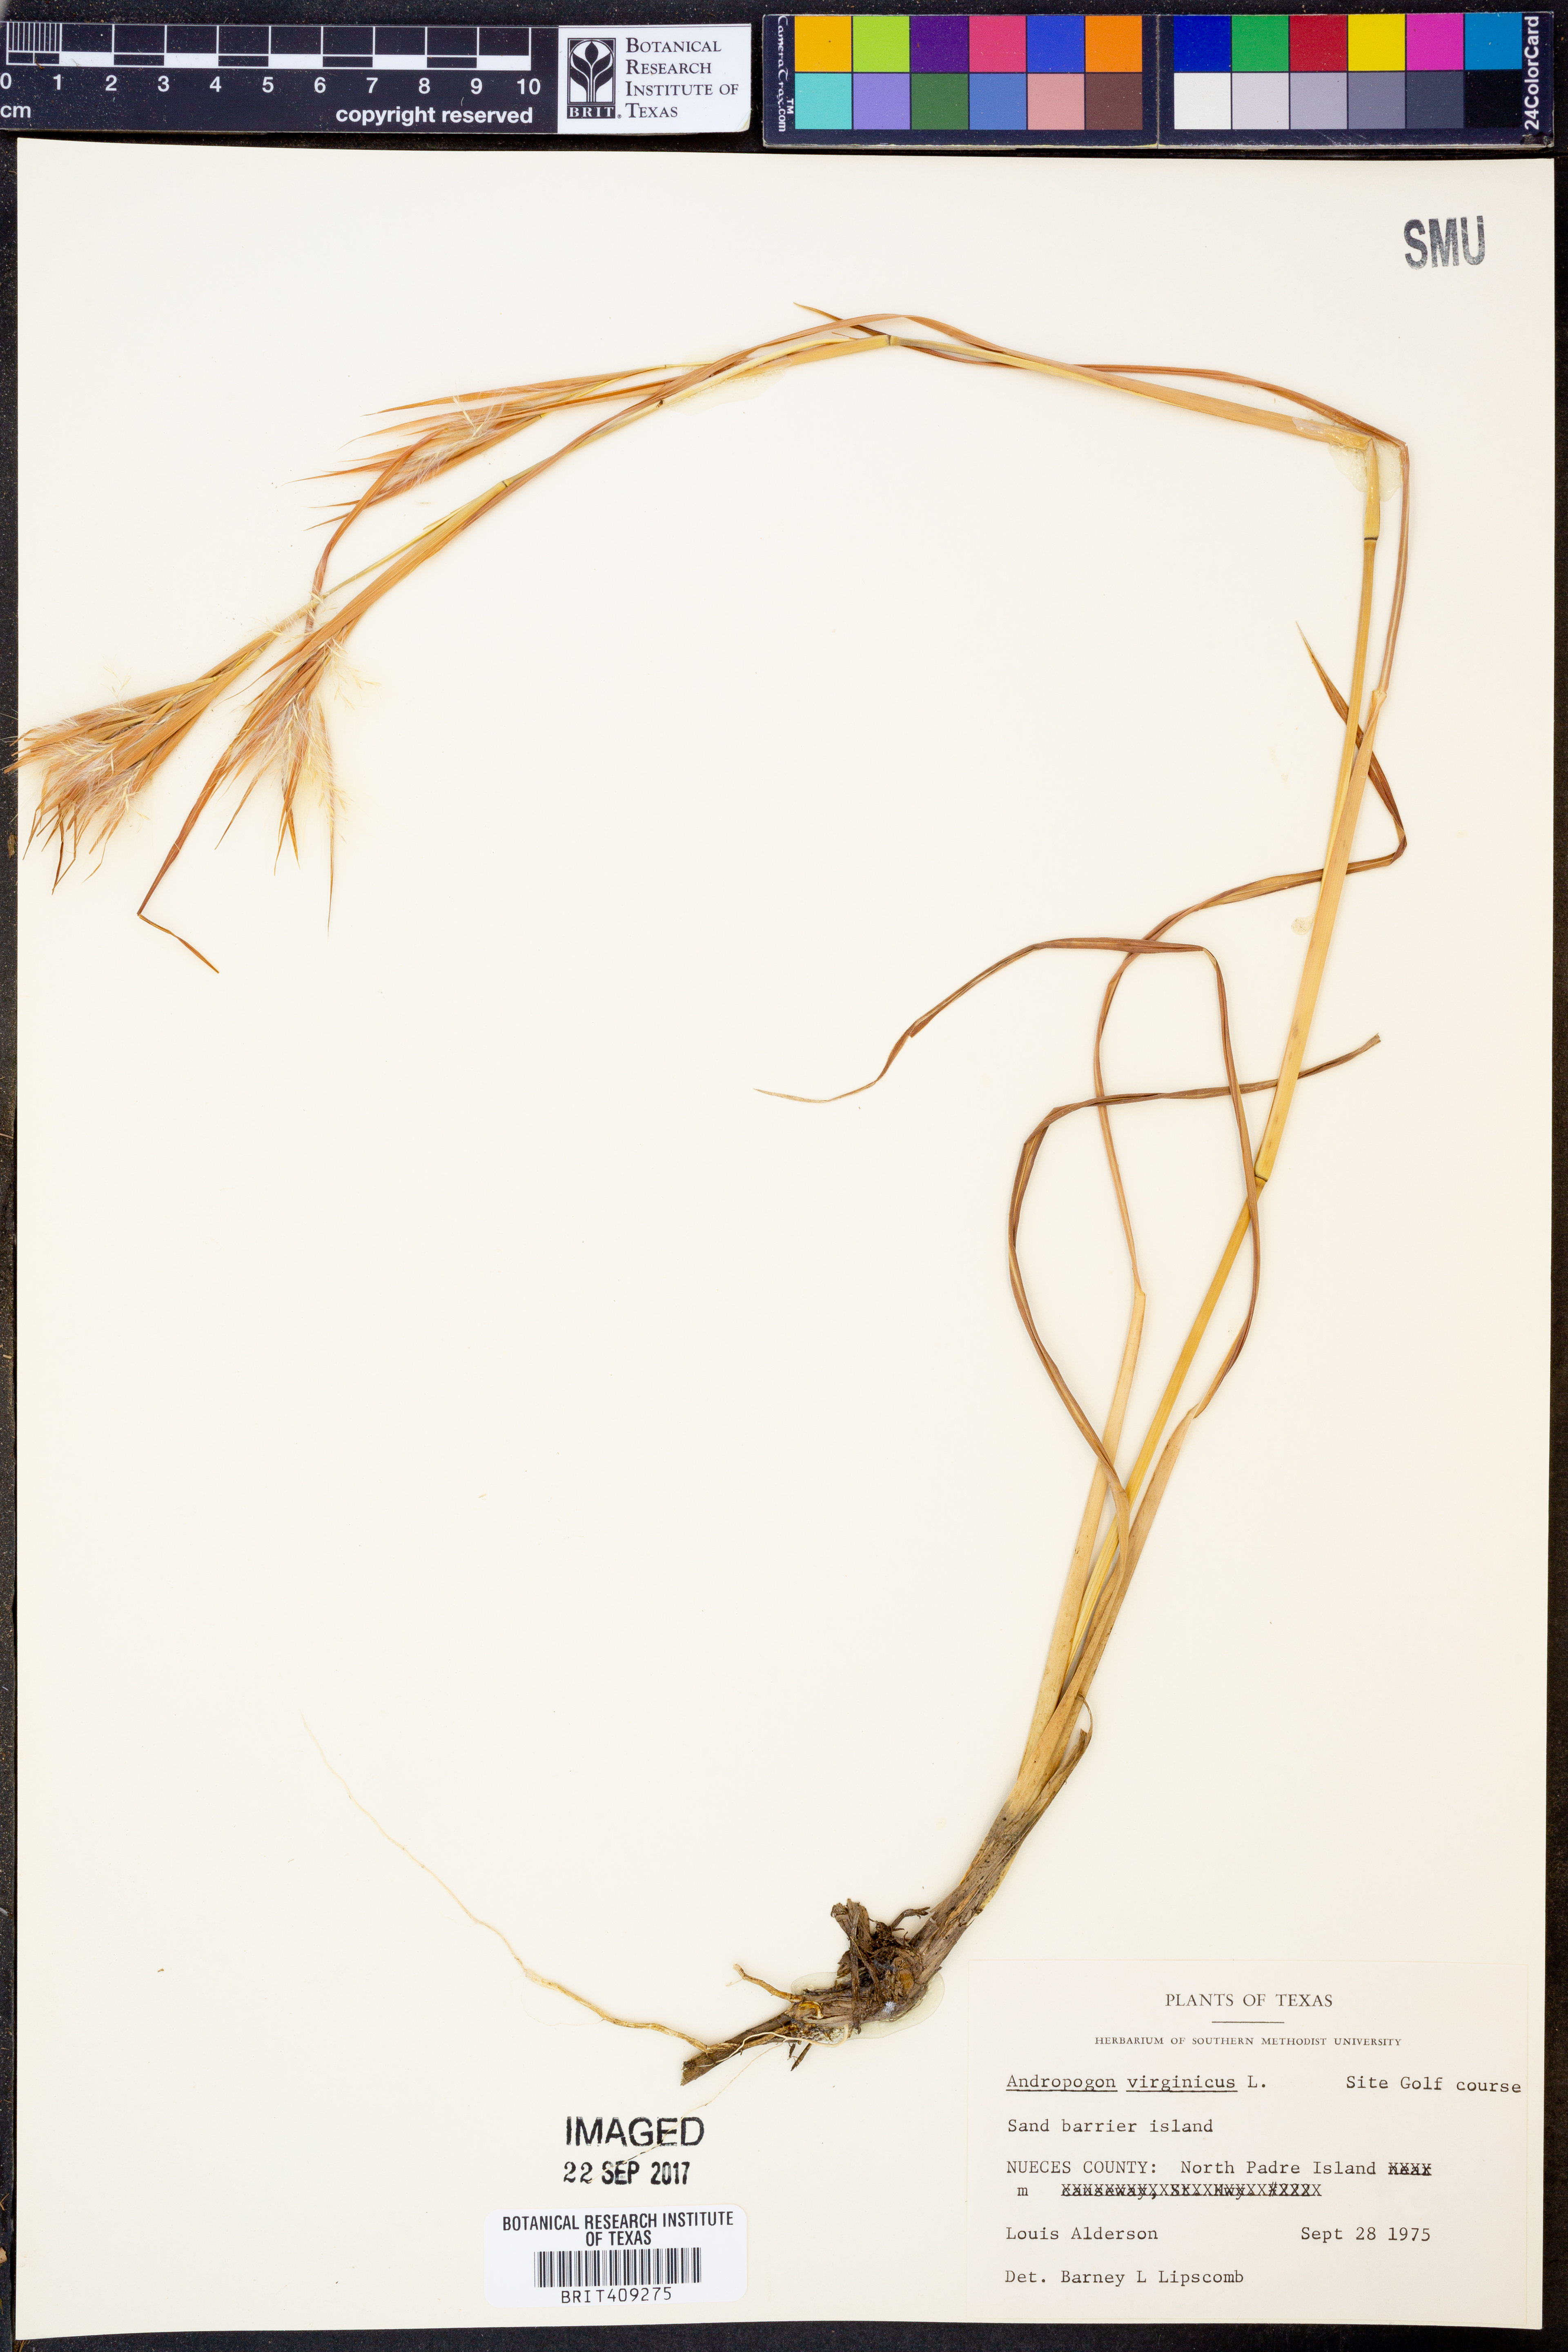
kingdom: Plantae
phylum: Tracheophyta
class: Liliopsida
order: Poales
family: Poaceae
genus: Andropogon
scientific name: Andropogon virginicus
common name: Broomsedge bluestem
